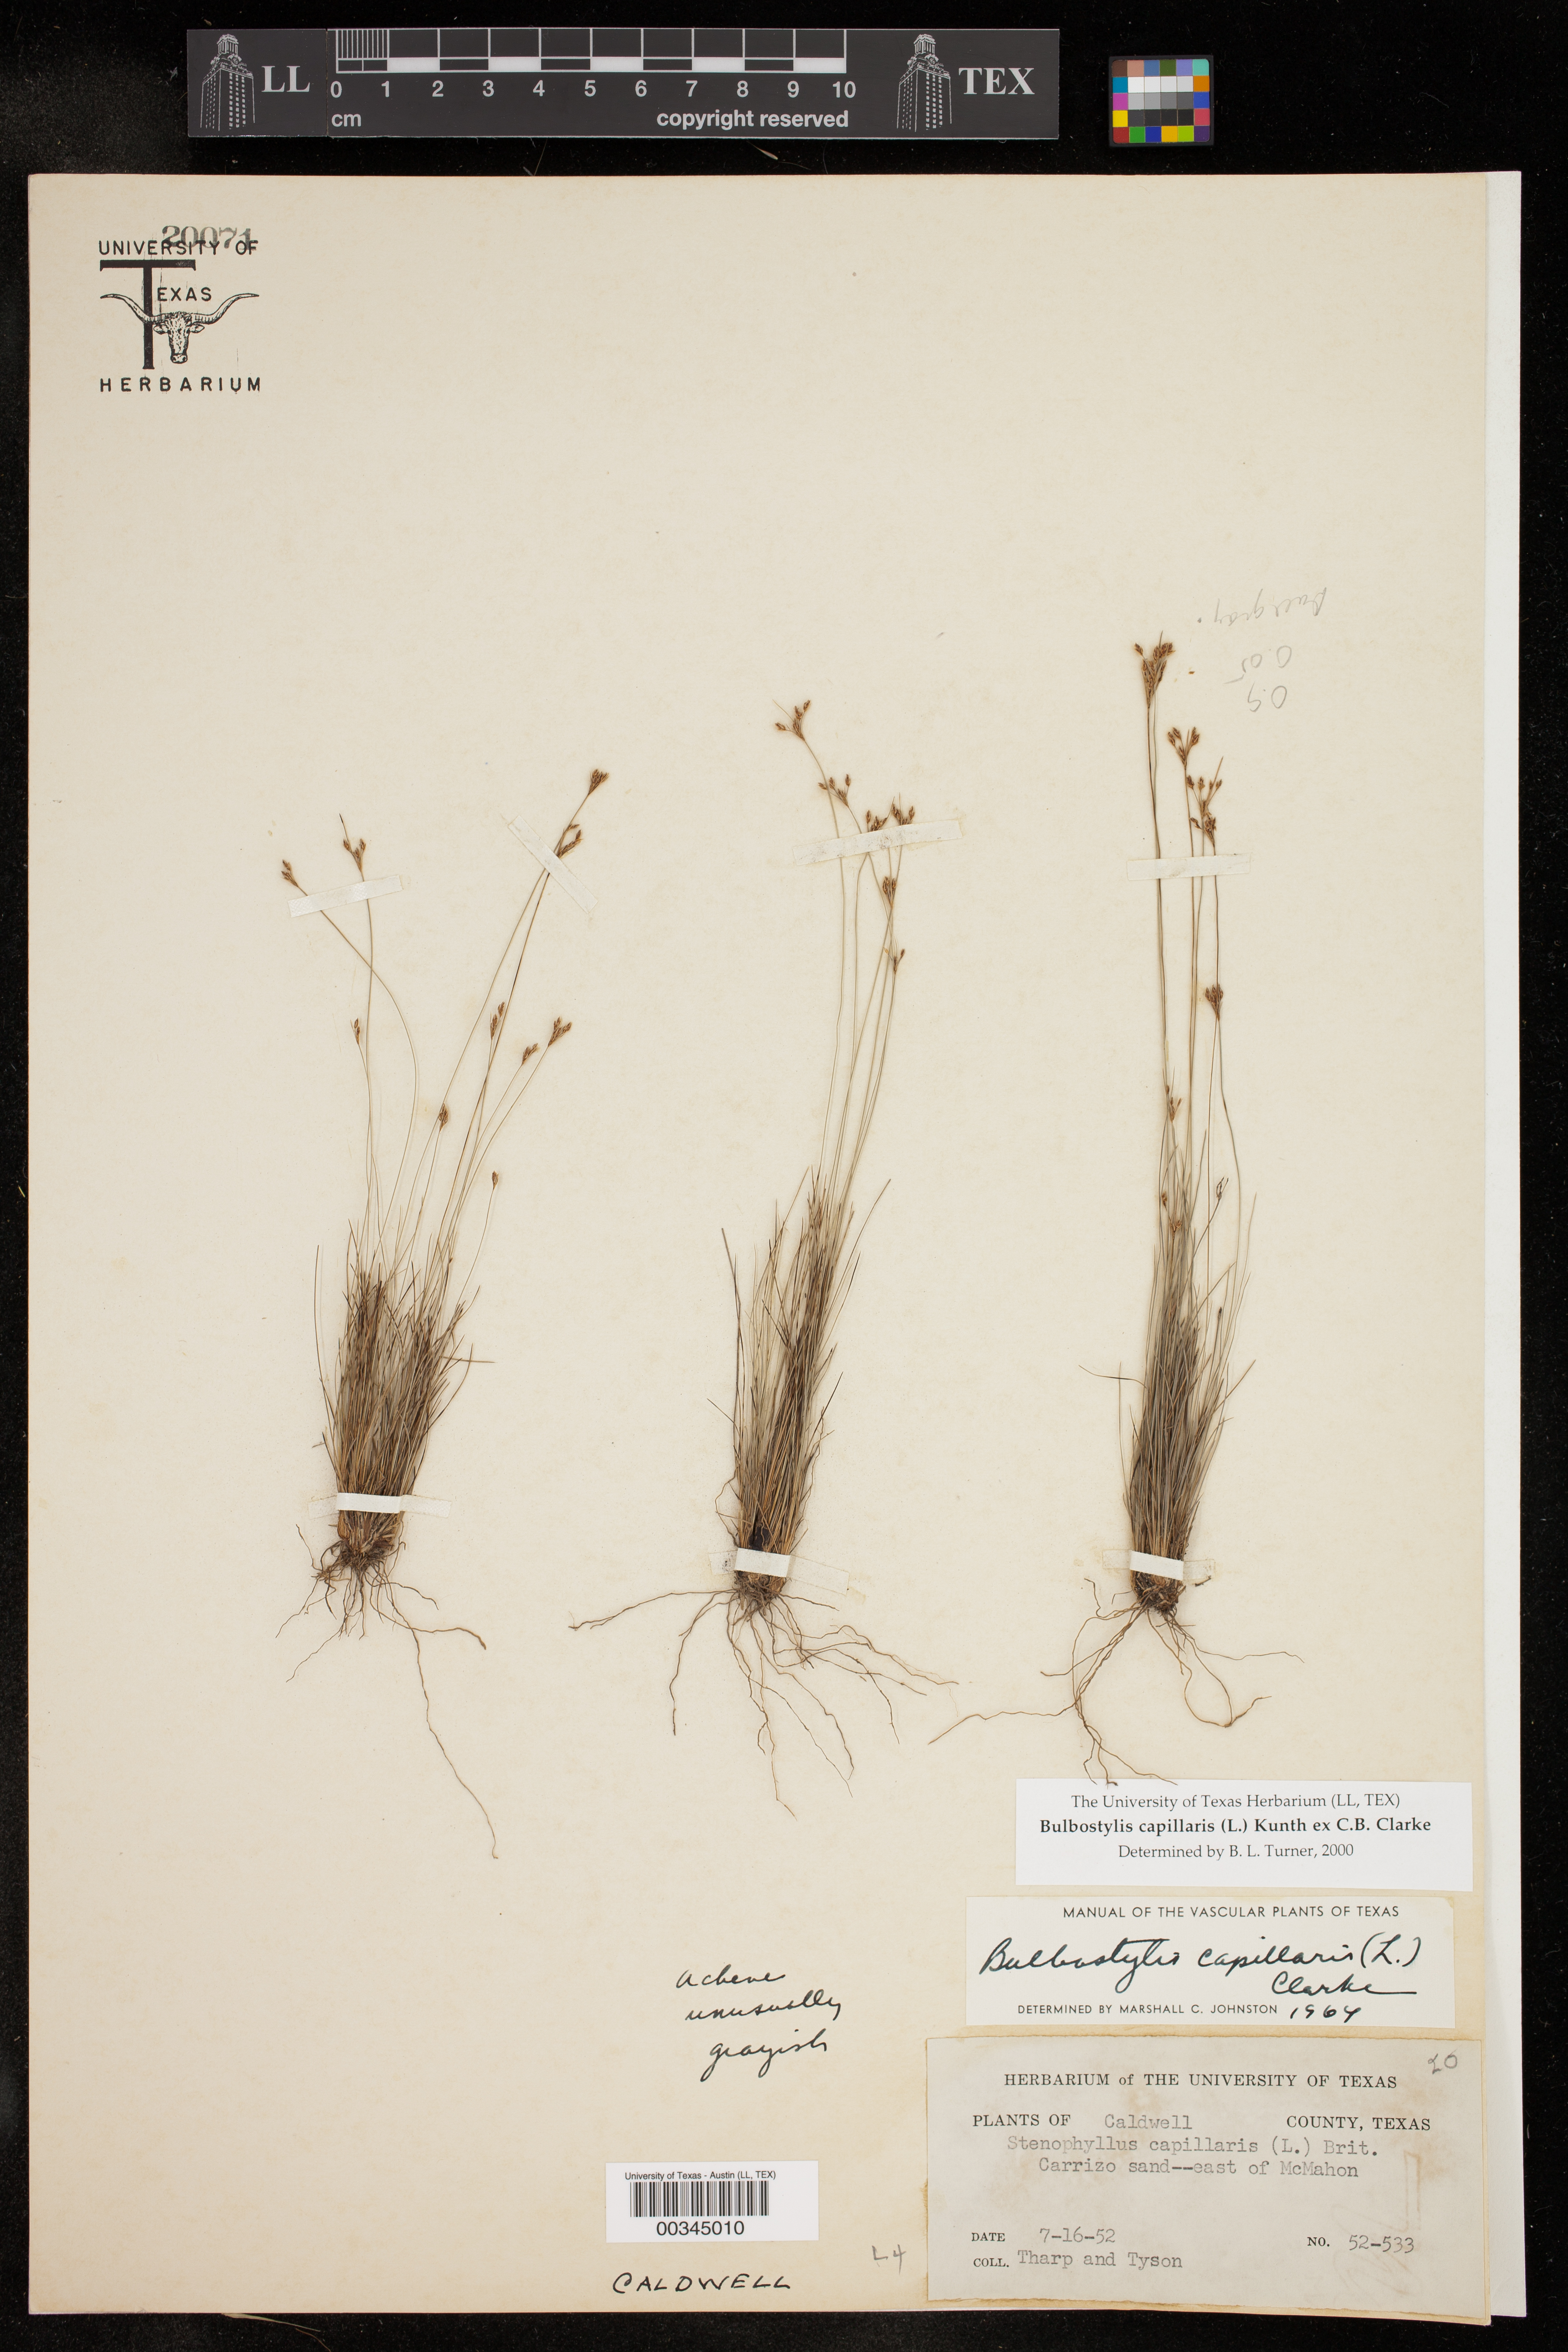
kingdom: Plantae
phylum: Tracheophyta
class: Liliopsida
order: Poales
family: Cyperaceae
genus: Bulbostylis
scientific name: Bulbostylis capillaris
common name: Densetuft hairsedge
